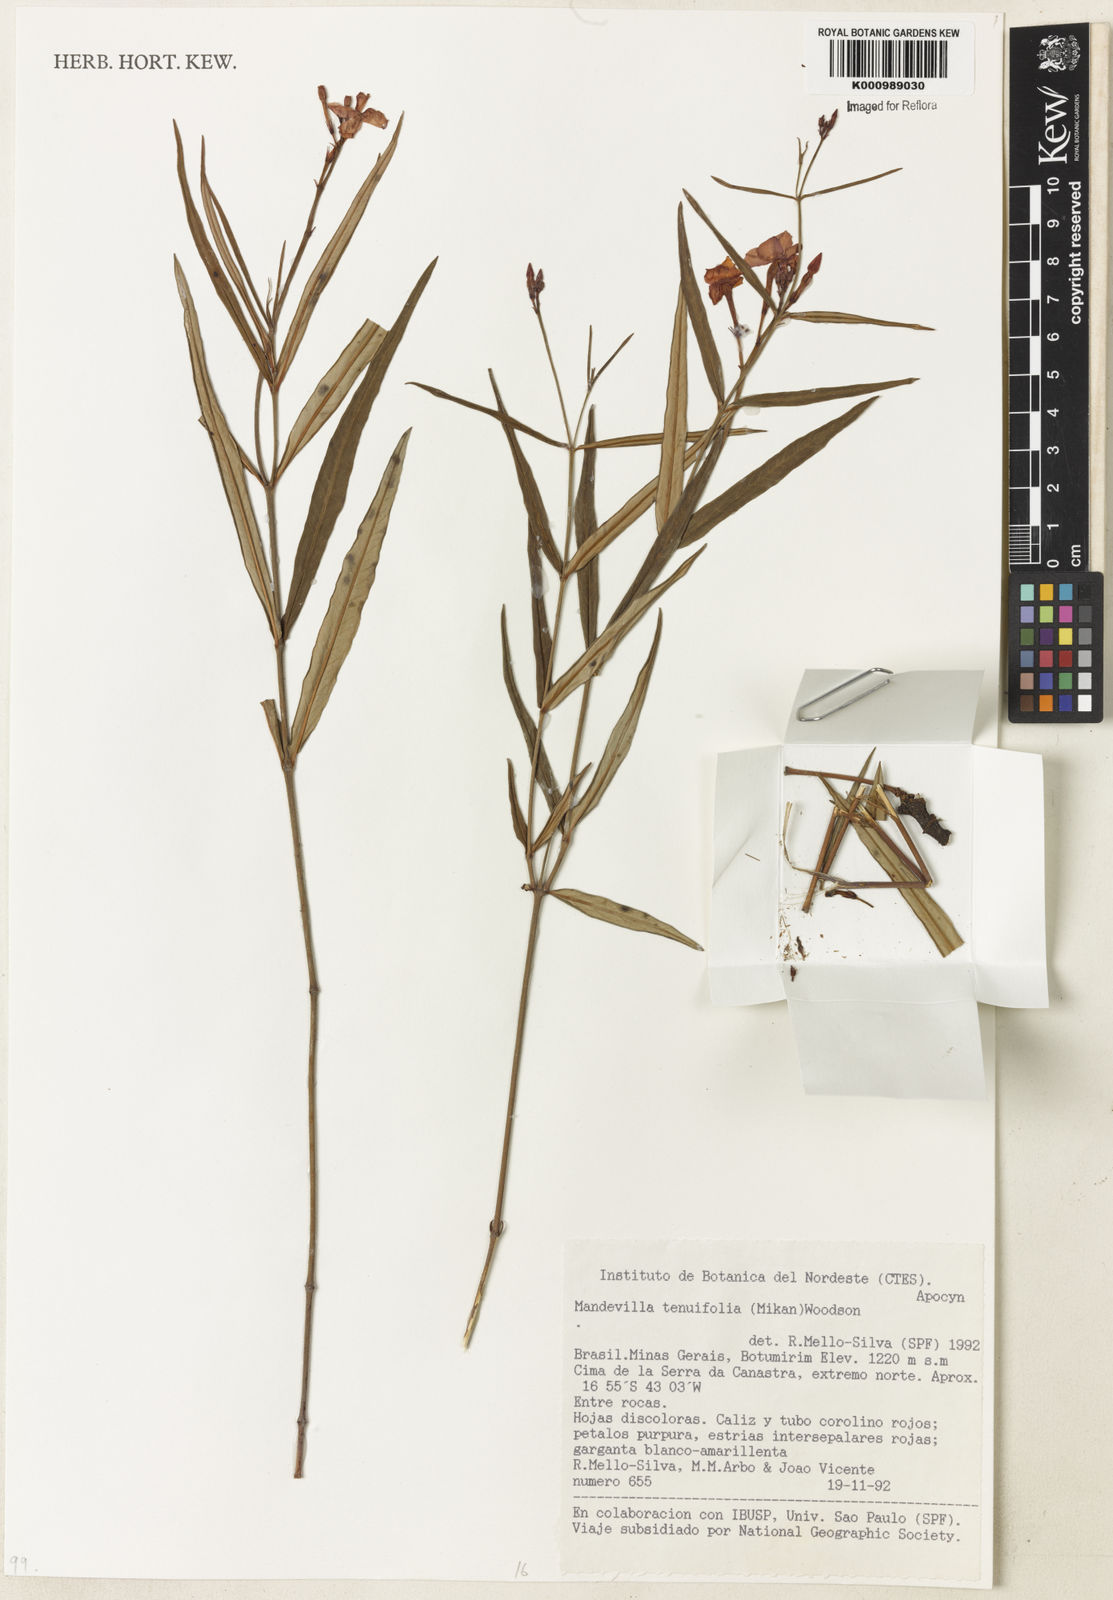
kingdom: Plantae
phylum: Tracheophyta
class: Magnoliopsida
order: Gentianales
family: Apocynaceae
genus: Mandevilla
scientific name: Mandevilla tenuifolia
